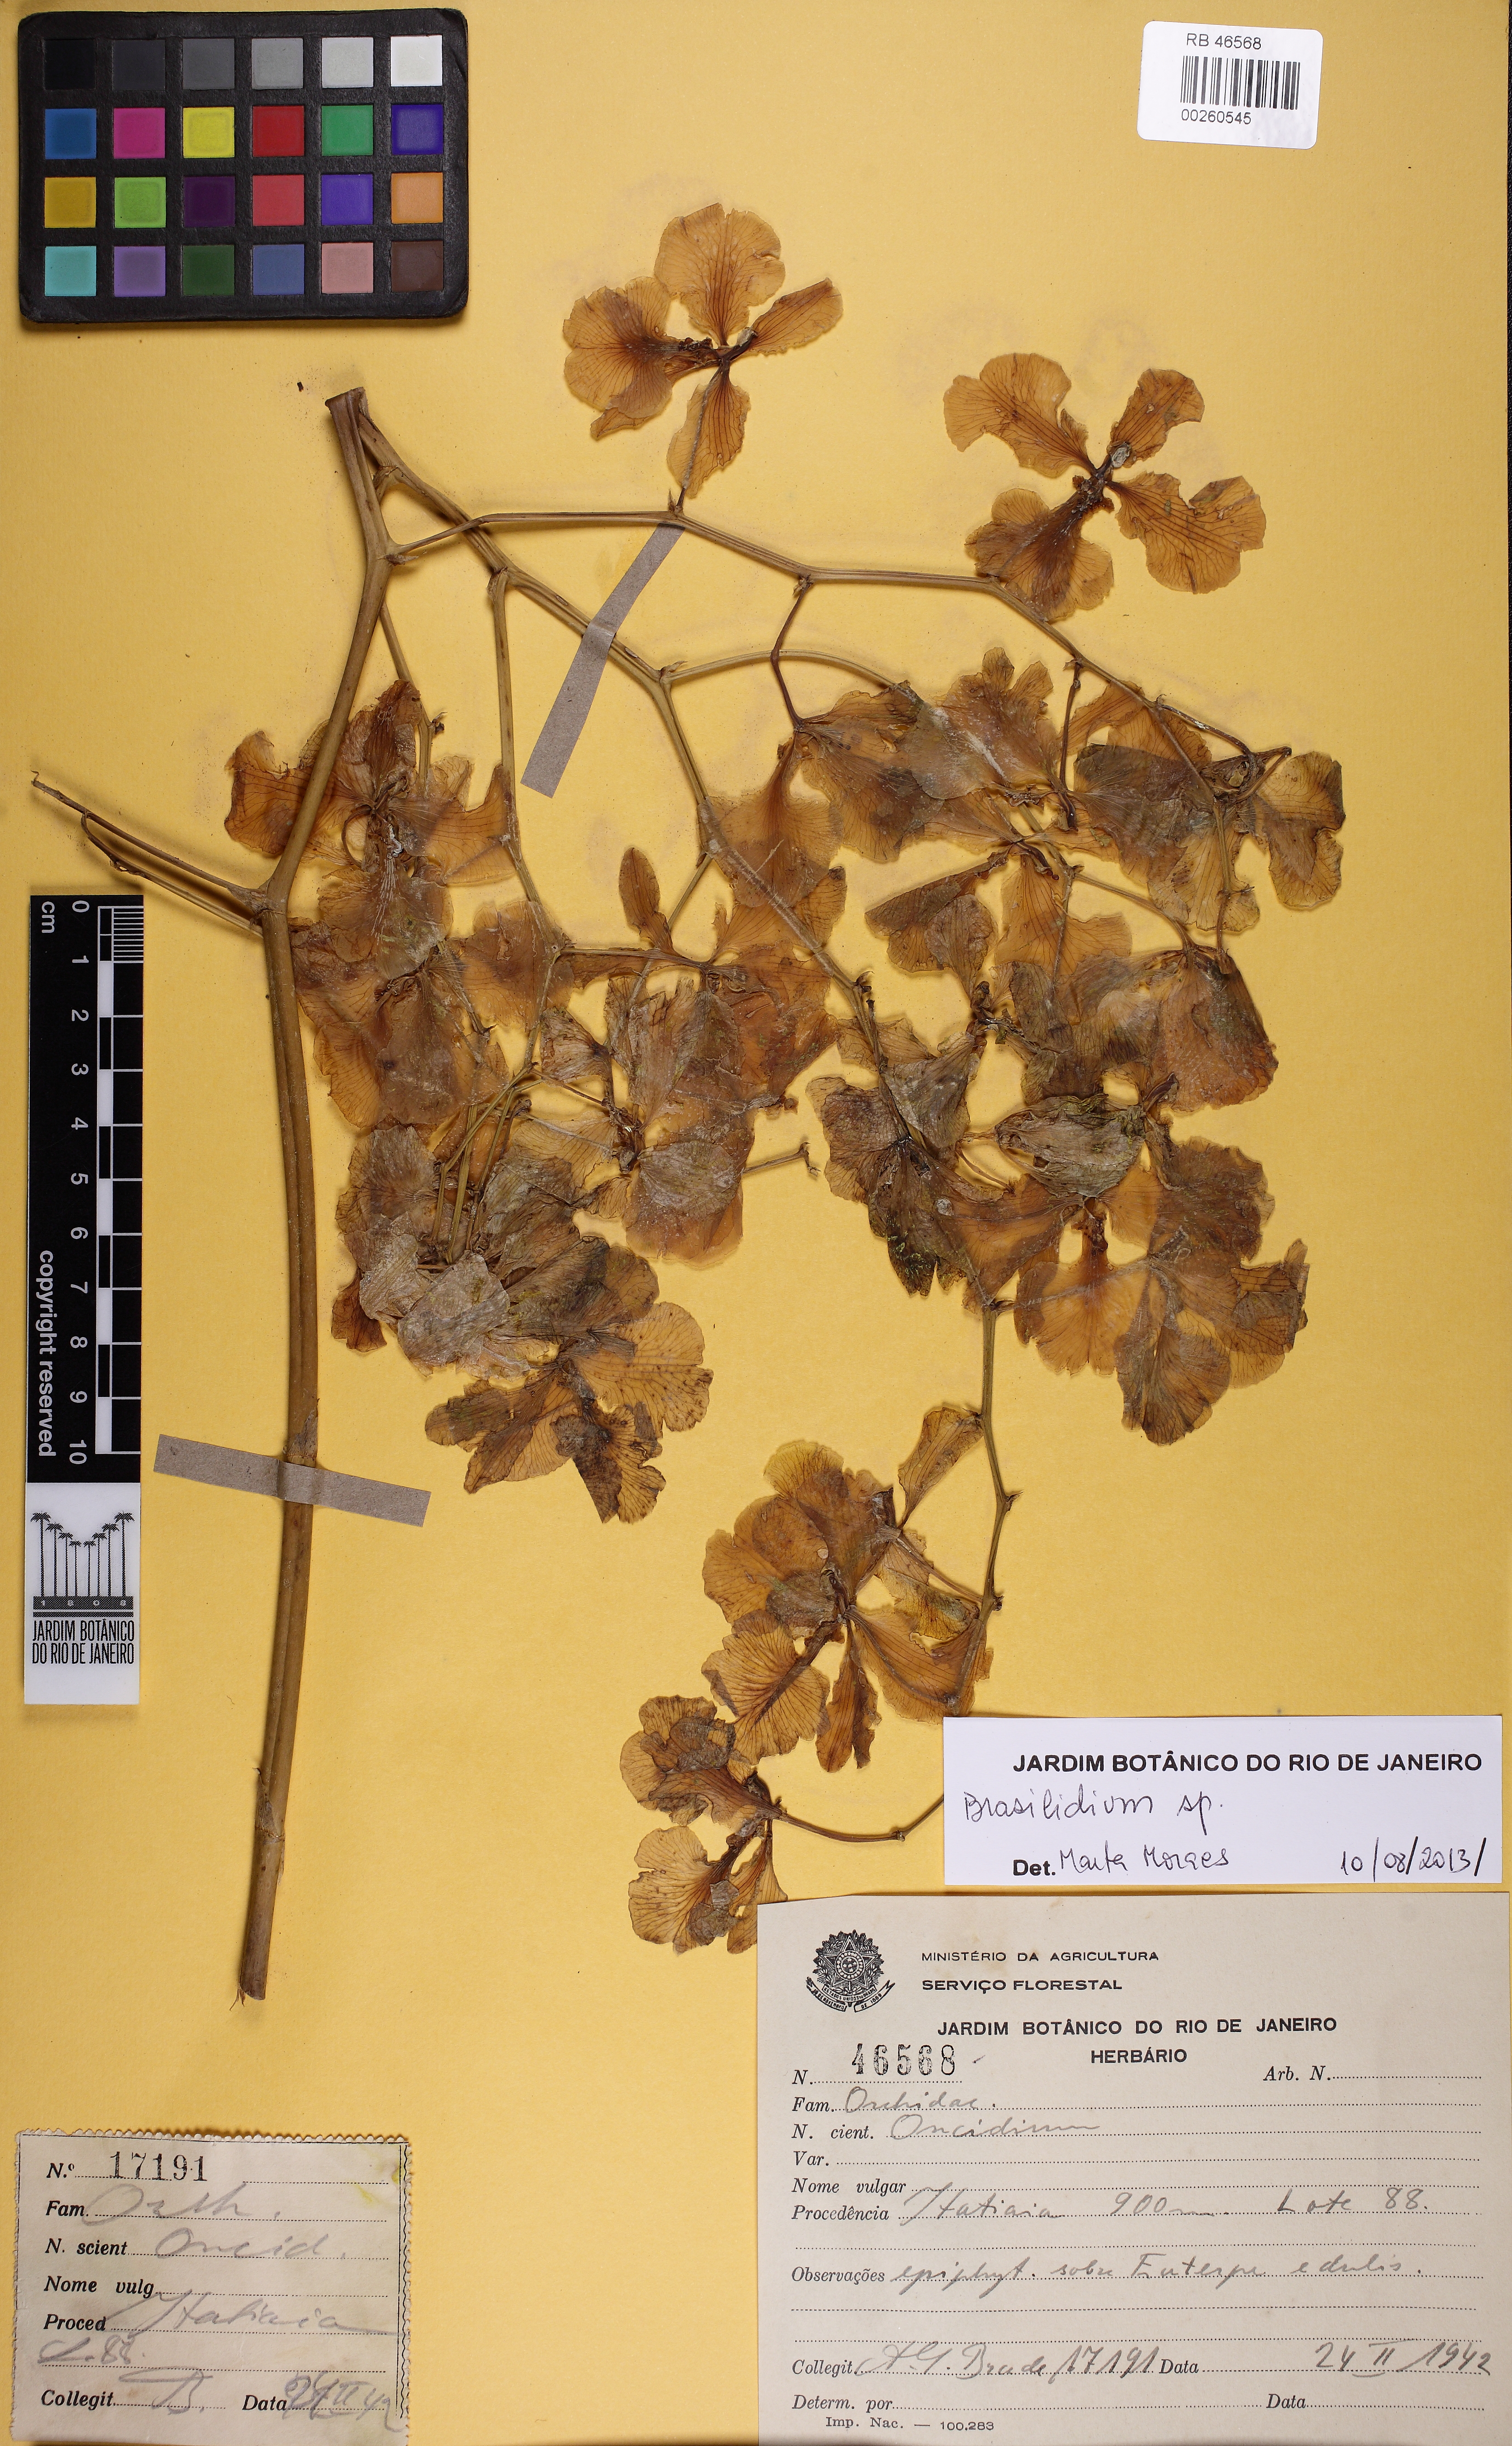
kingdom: Plantae
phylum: Tracheophyta
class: Liliopsida
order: Asparagales
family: Orchidaceae
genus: Gomesa
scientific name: Gomesa imperatoris-maximiliani
